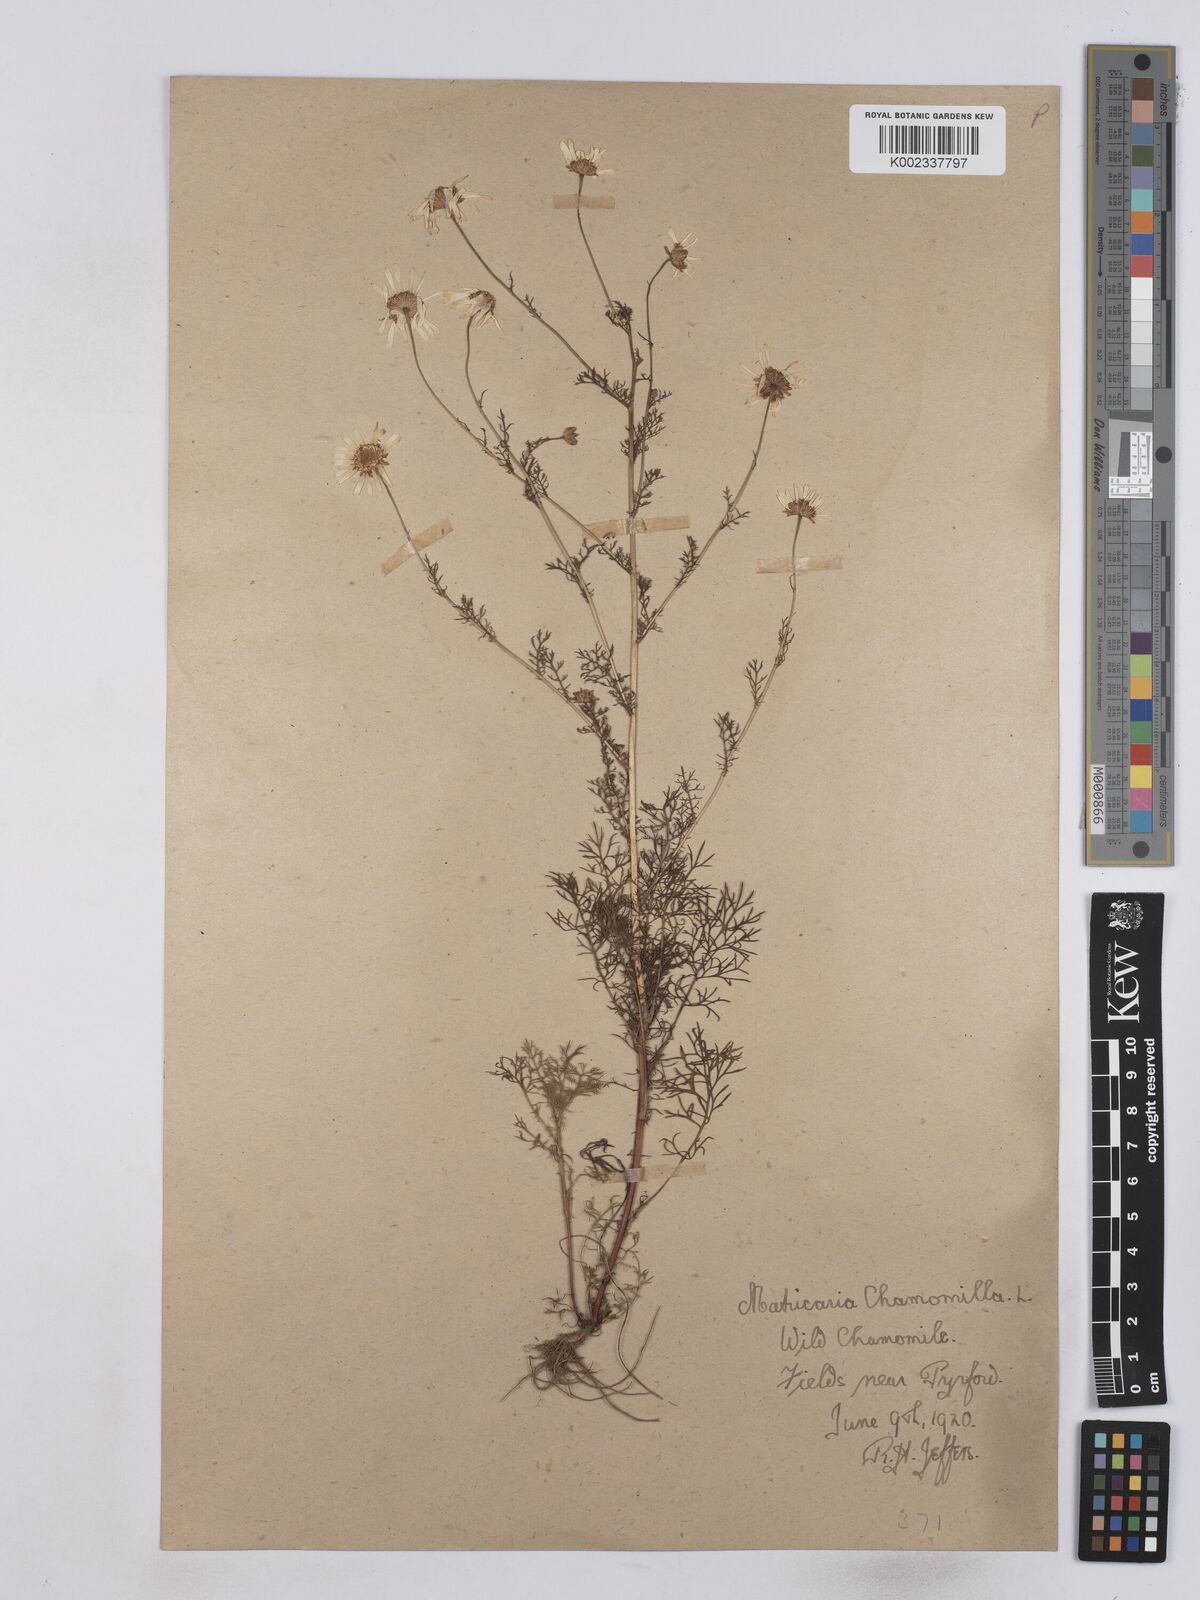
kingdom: Plantae
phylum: Tracheophyta
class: Magnoliopsida
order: Asterales
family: Asteraceae
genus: Matricaria
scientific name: Matricaria chamomilla
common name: Scented mayweed
